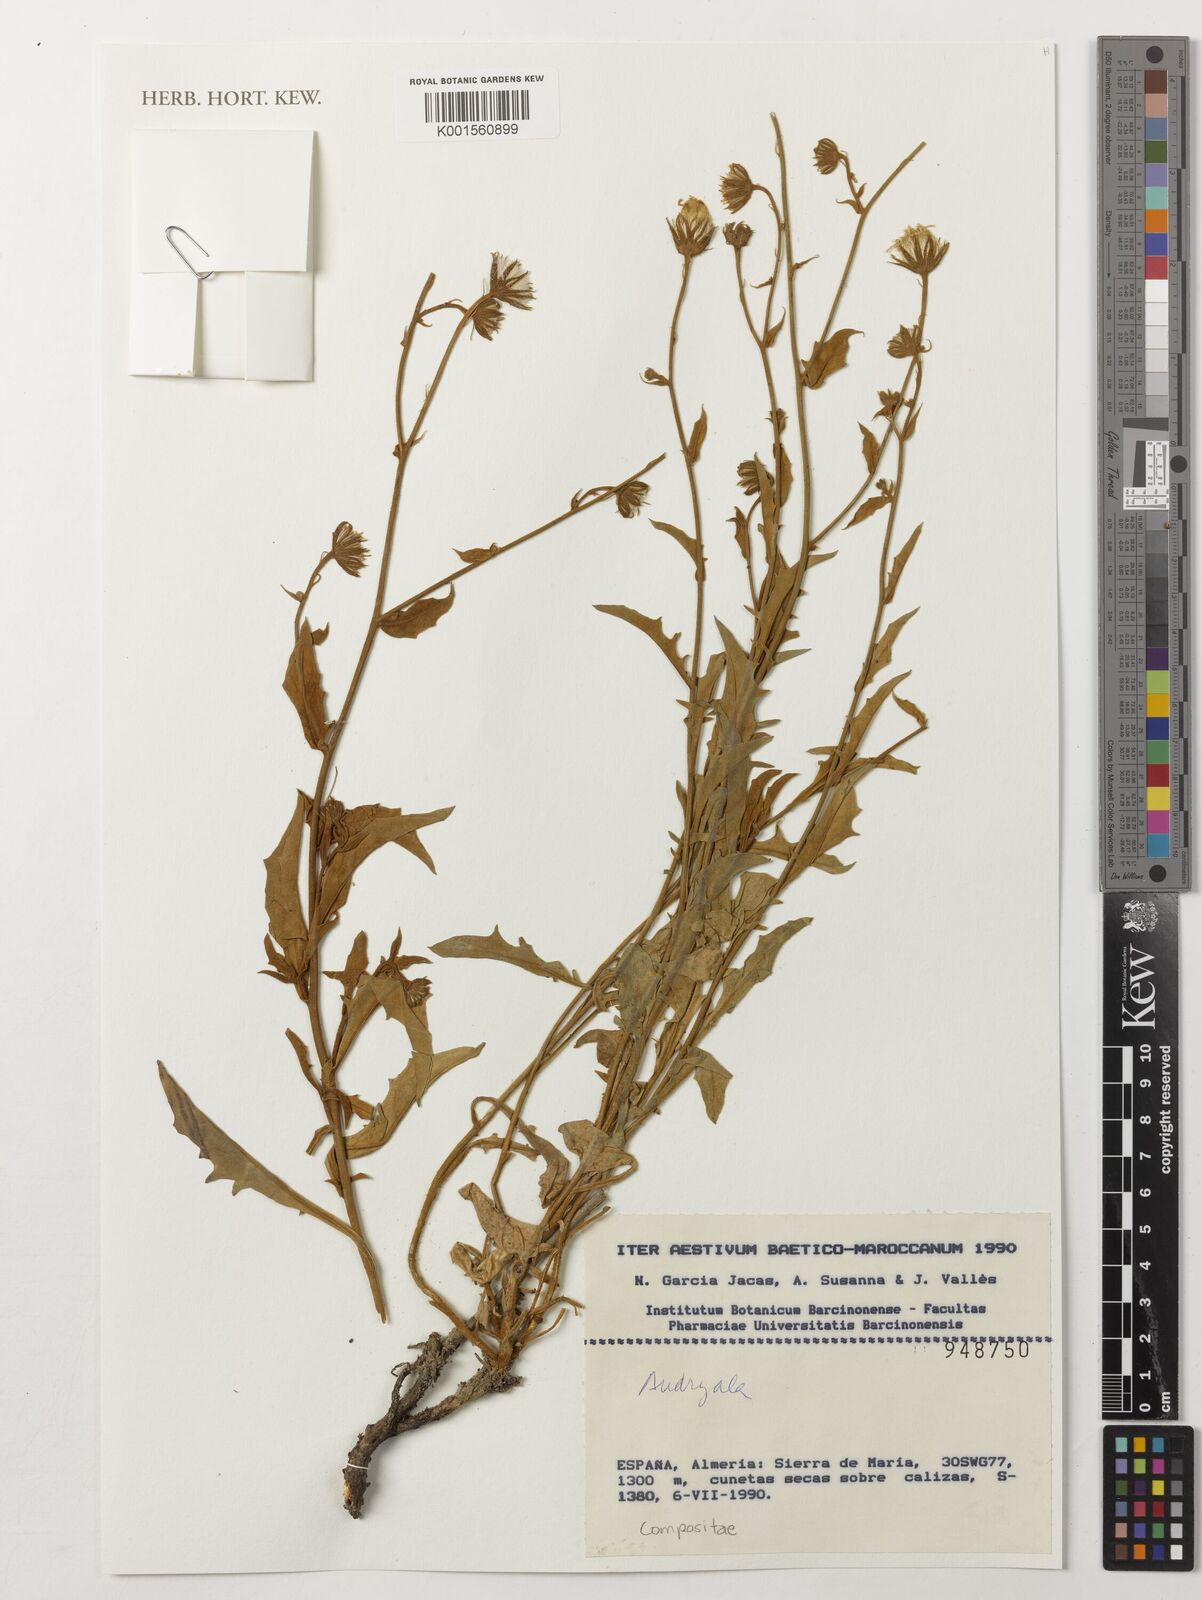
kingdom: Plantae
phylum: Tracheophyta
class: Magnoliopsida
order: Asterales
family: Asteraceae
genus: Andryala
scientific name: Andryala
